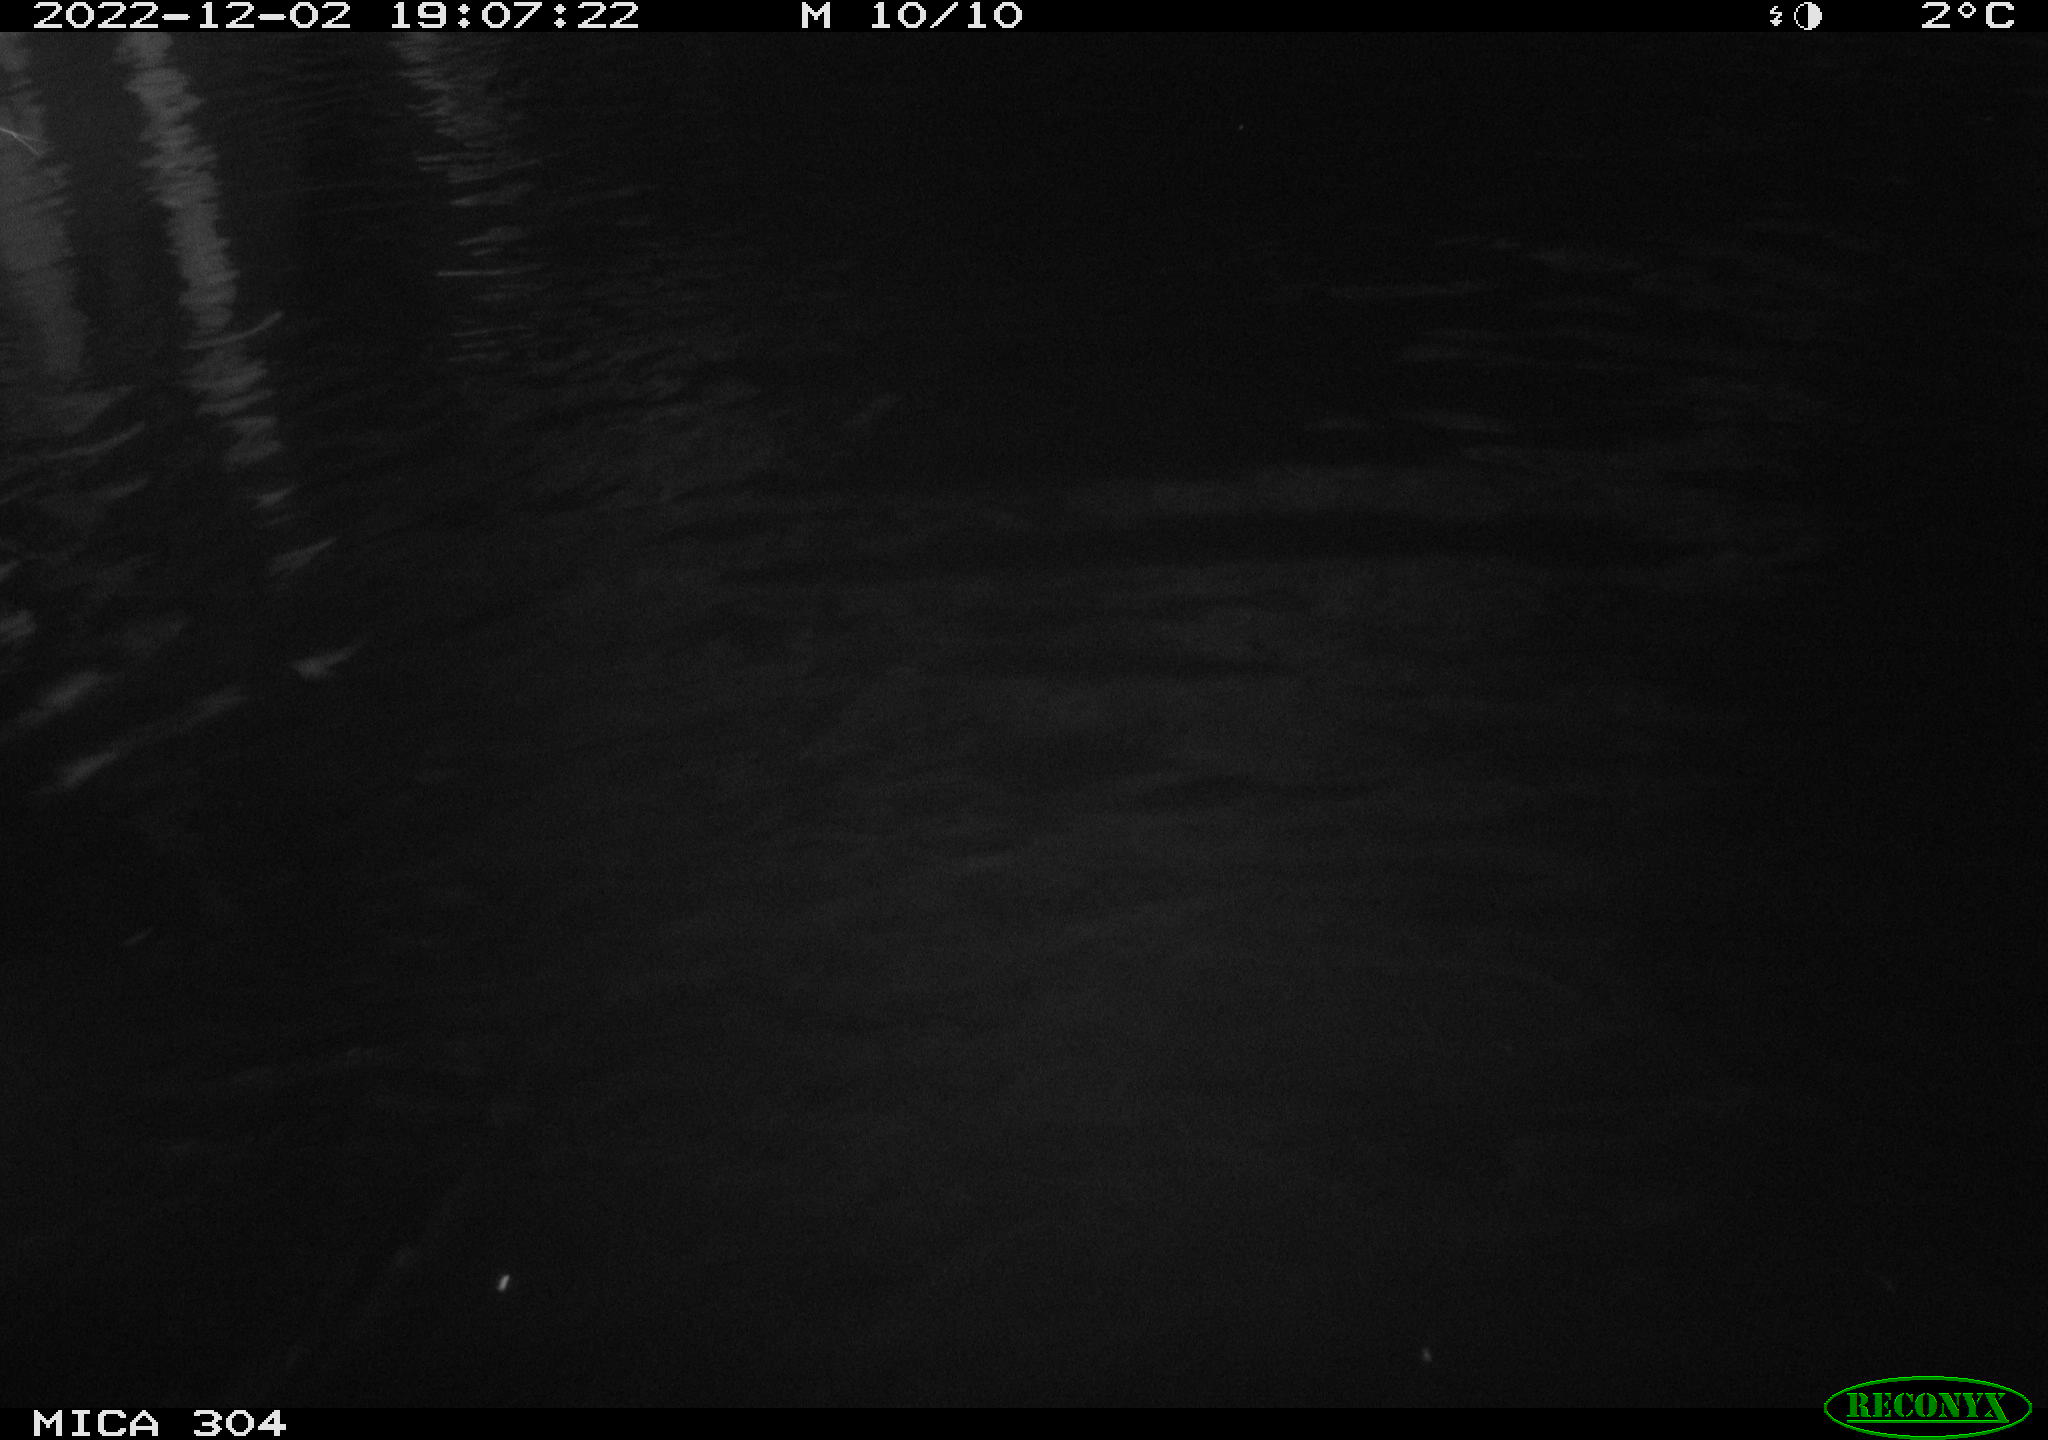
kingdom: Animalia
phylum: Chordata
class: Mammalia
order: Rodentia
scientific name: Rodentia
